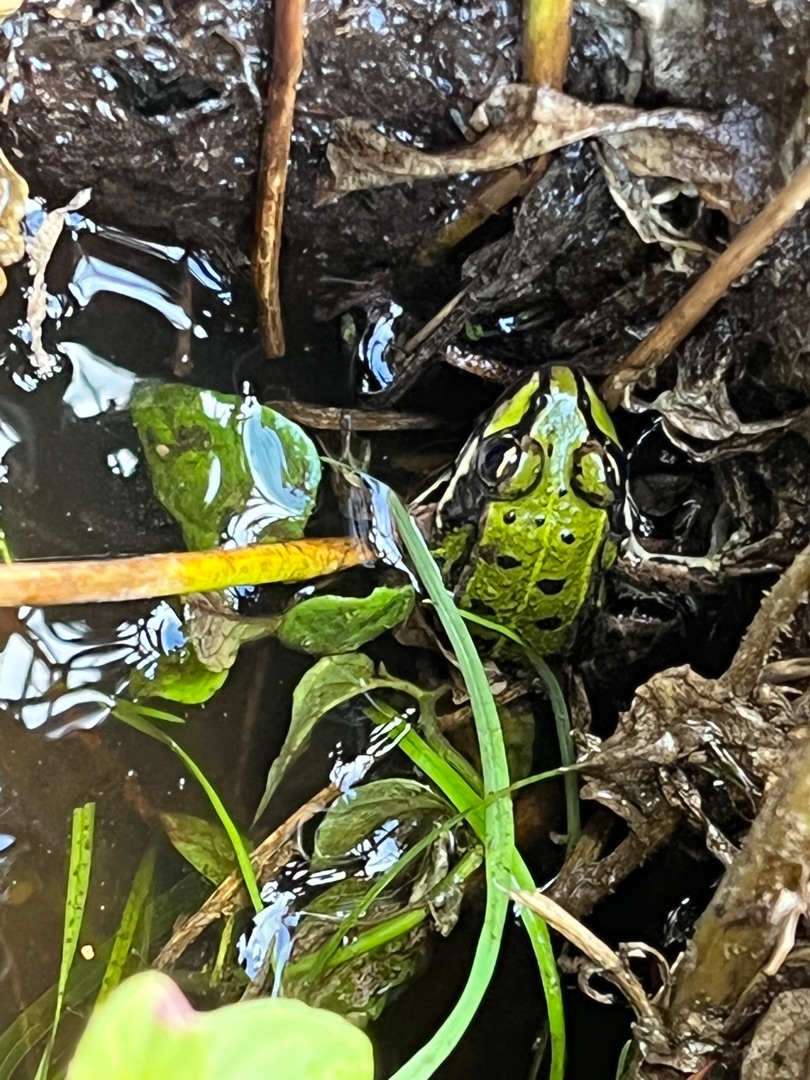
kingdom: Animalia
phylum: Chordata
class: Amphibia
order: Anura
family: Ranidae
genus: Pelophylax
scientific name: Pelophylax lessonae
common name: Grøn frø
